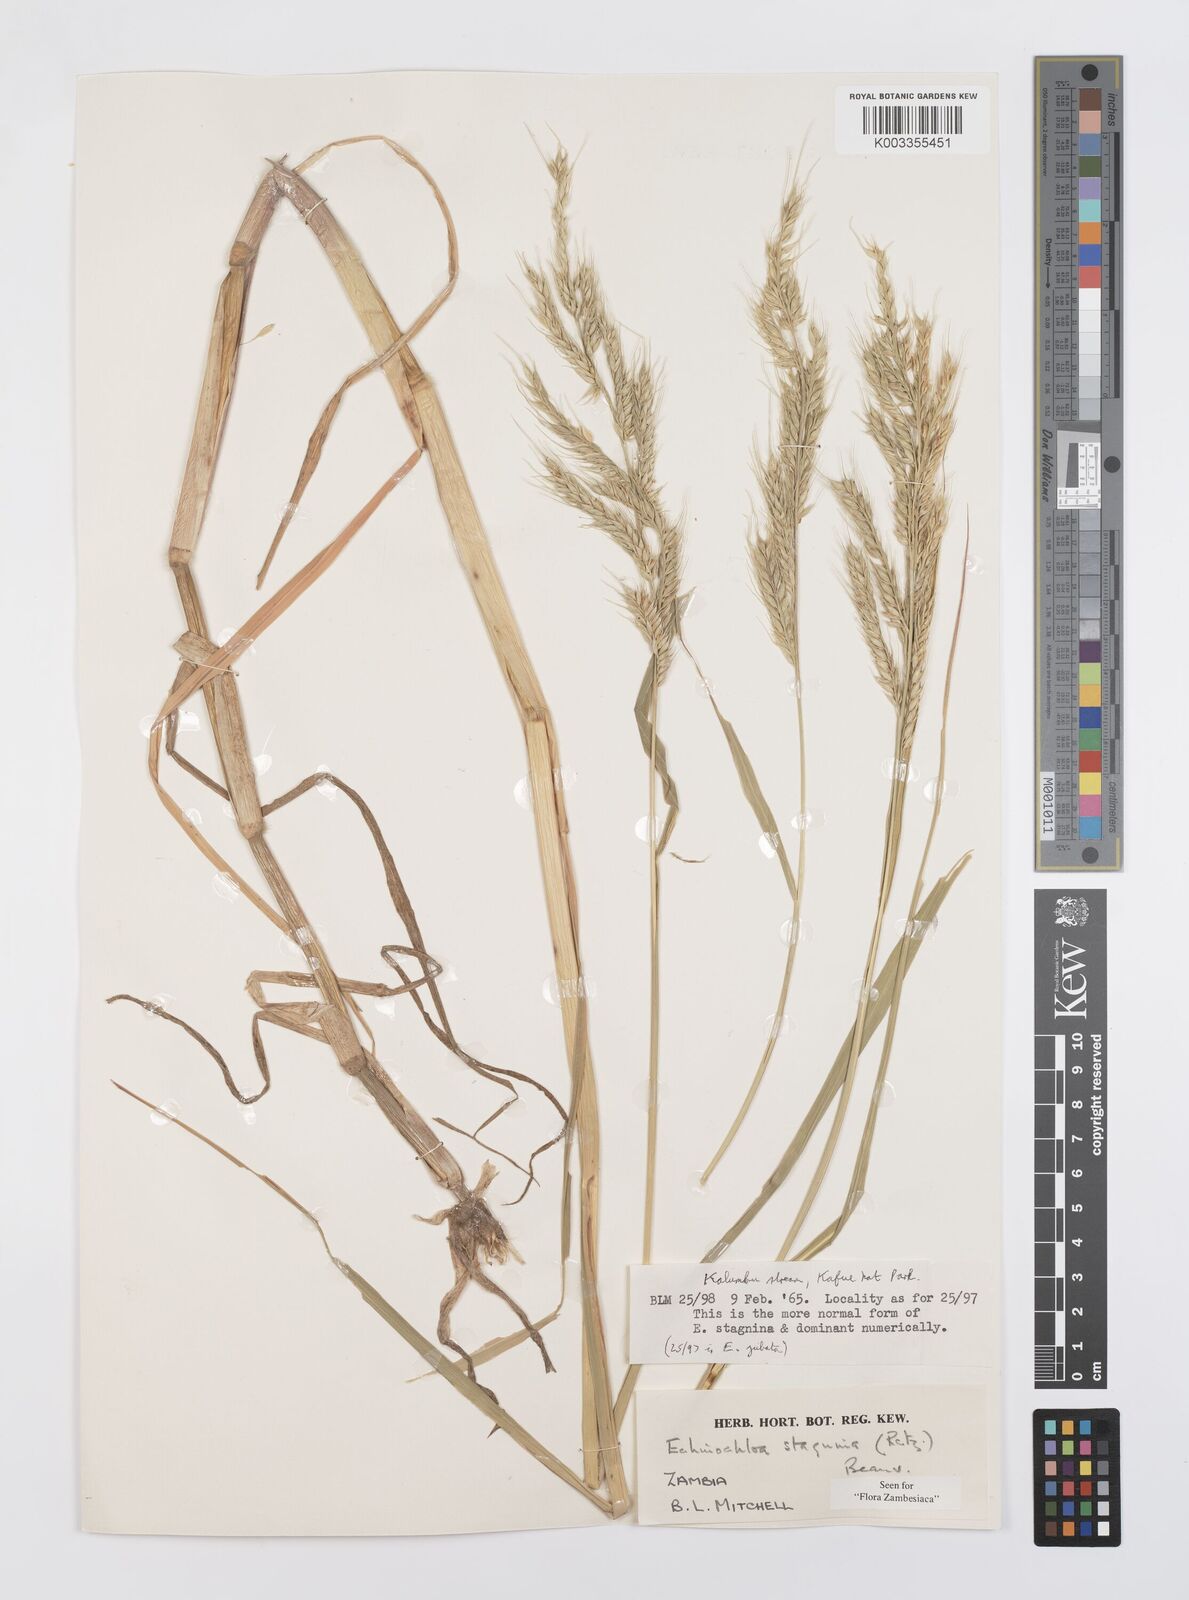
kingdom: Plantae
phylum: Tracheophyta
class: Liliopsida
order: Poales
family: Poaceae
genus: Echinochloa
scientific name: Echinochloa stagnina
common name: Burgu grass
